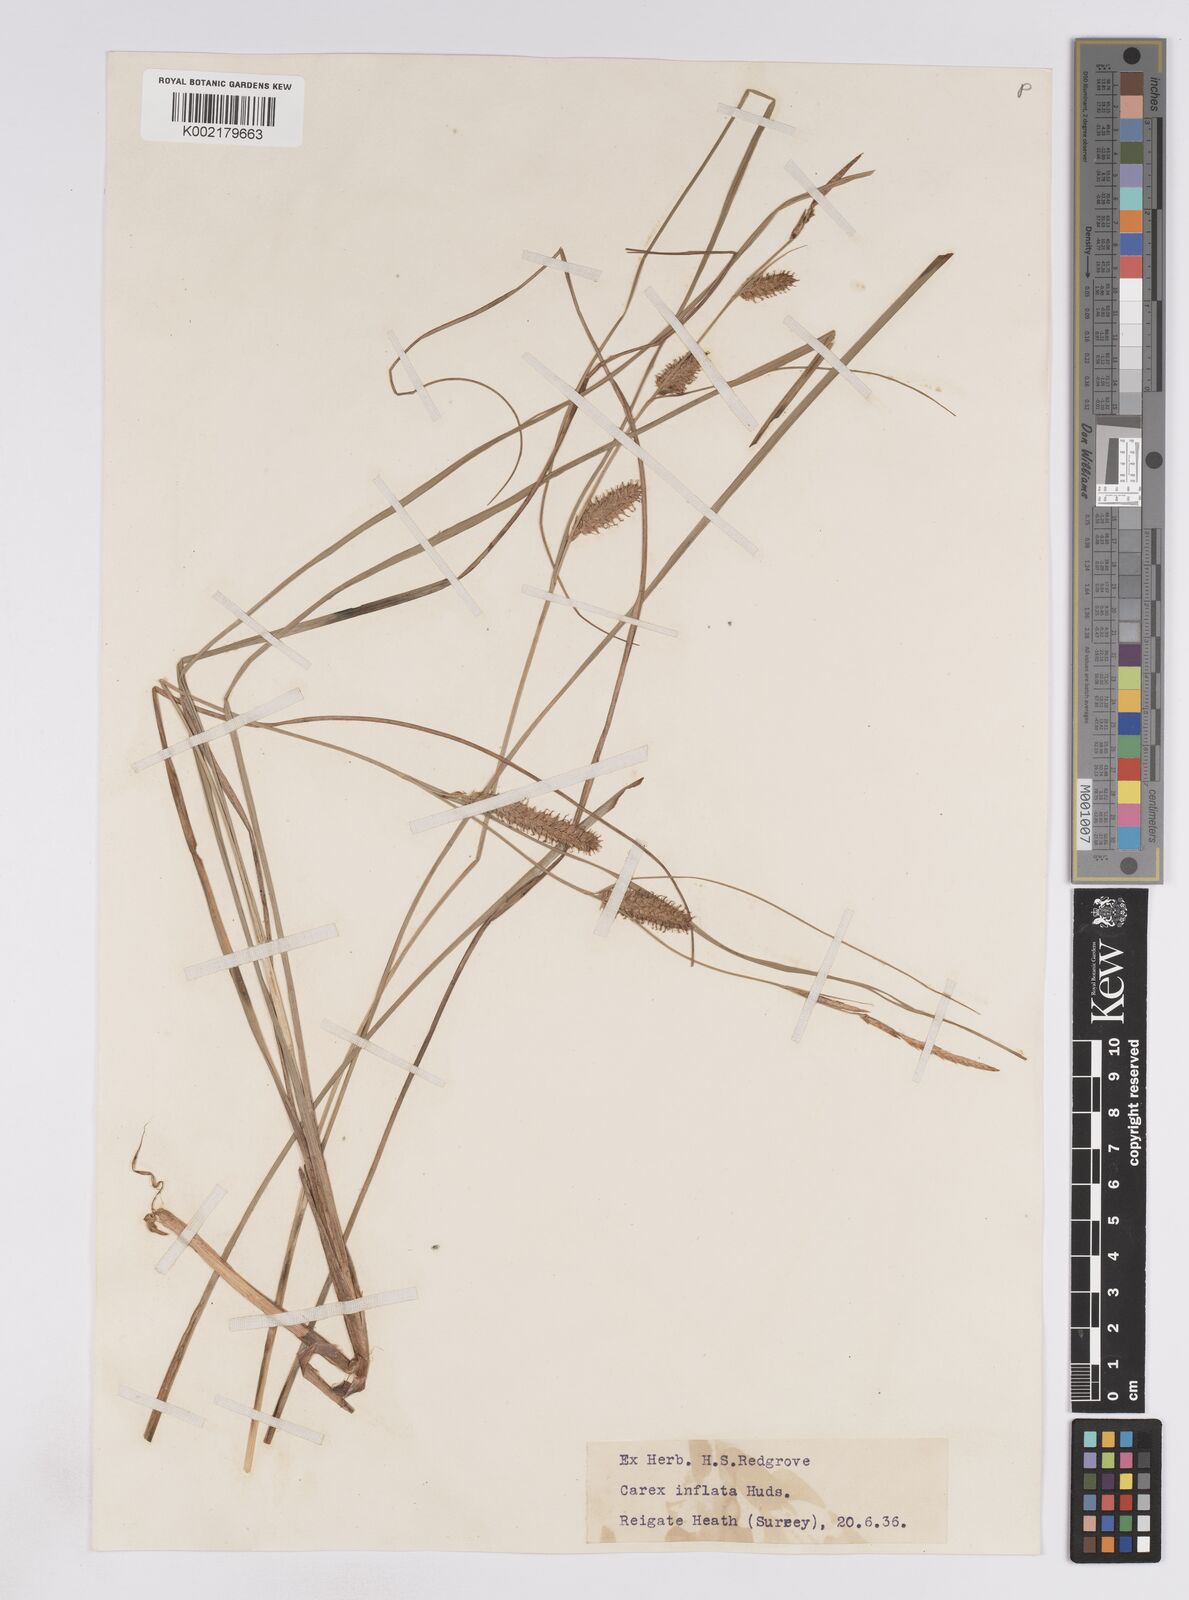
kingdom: Plantae
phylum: Tracheophyta
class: Liliopsida
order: Poales
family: Cyperaceae
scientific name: Cyperaceae
